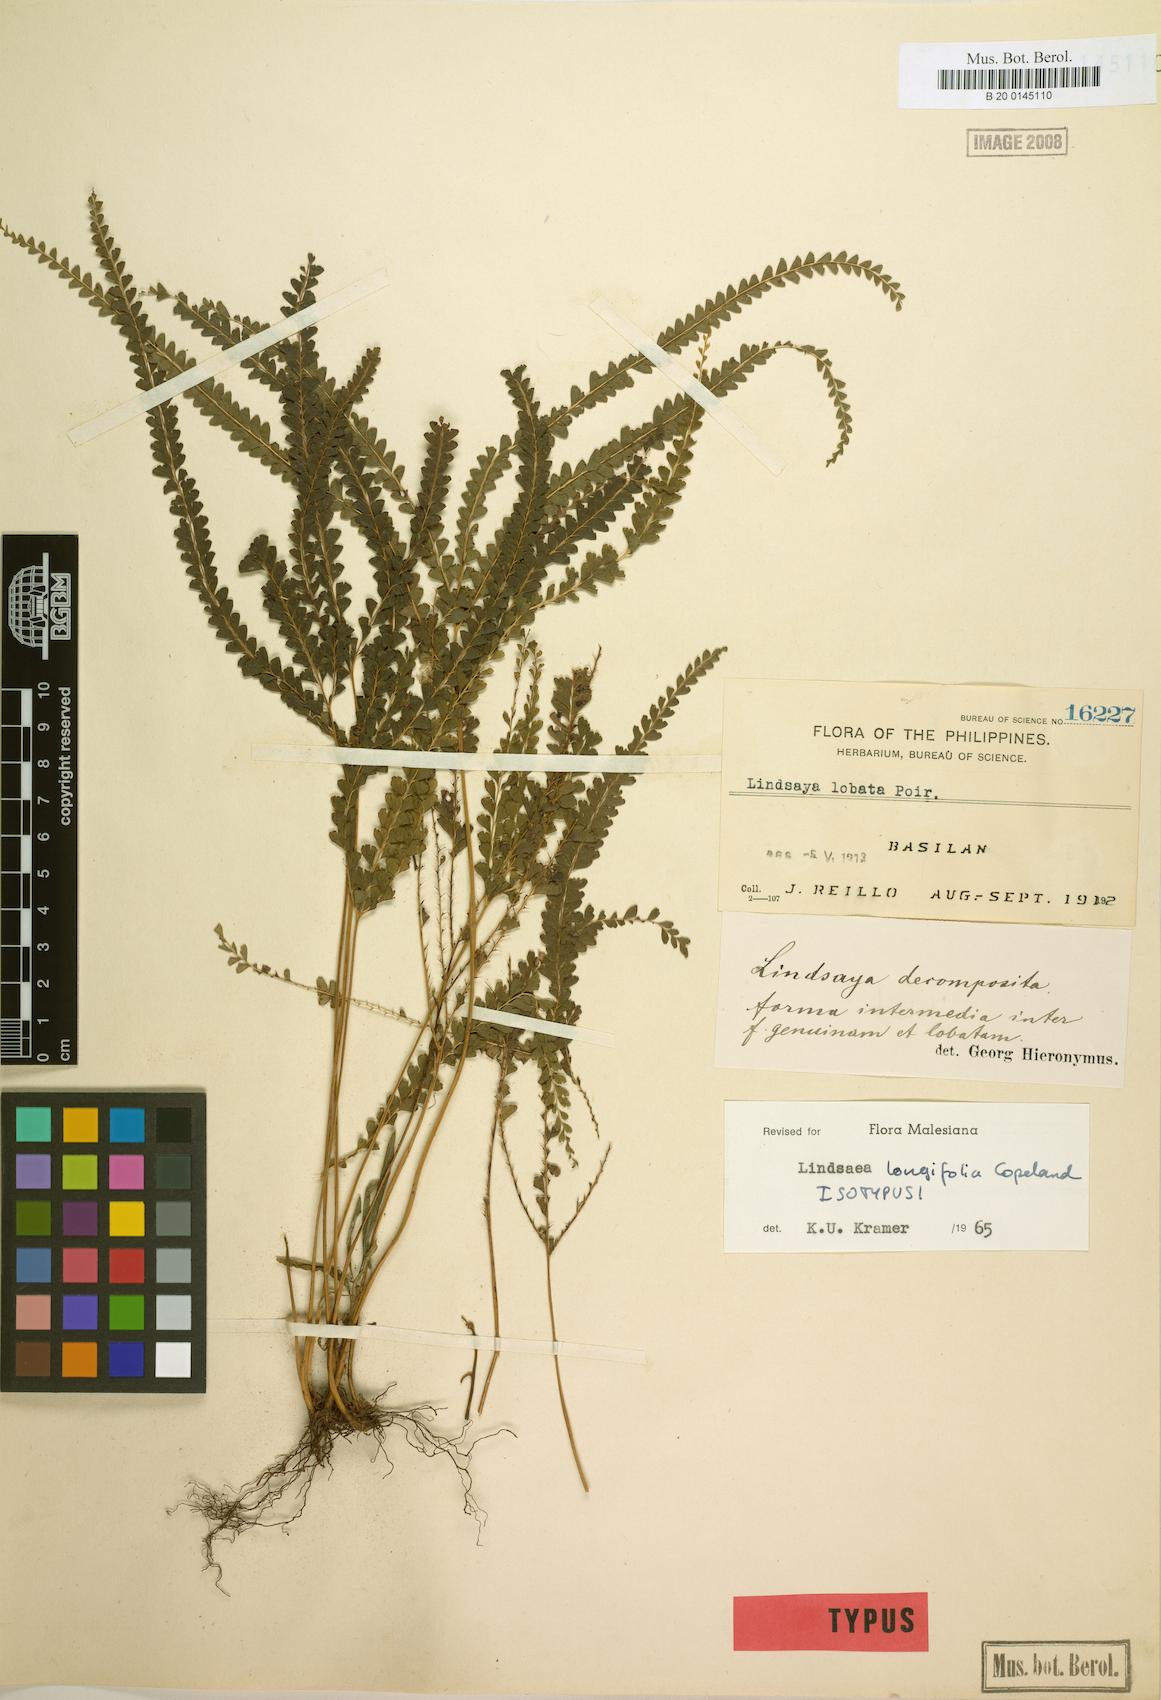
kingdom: Plantae
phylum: Tracheophyta
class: Polypodiopsida
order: Polypodiales
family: Lindsaeaceae
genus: Lindsaea
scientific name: Lindsaea longifolia
